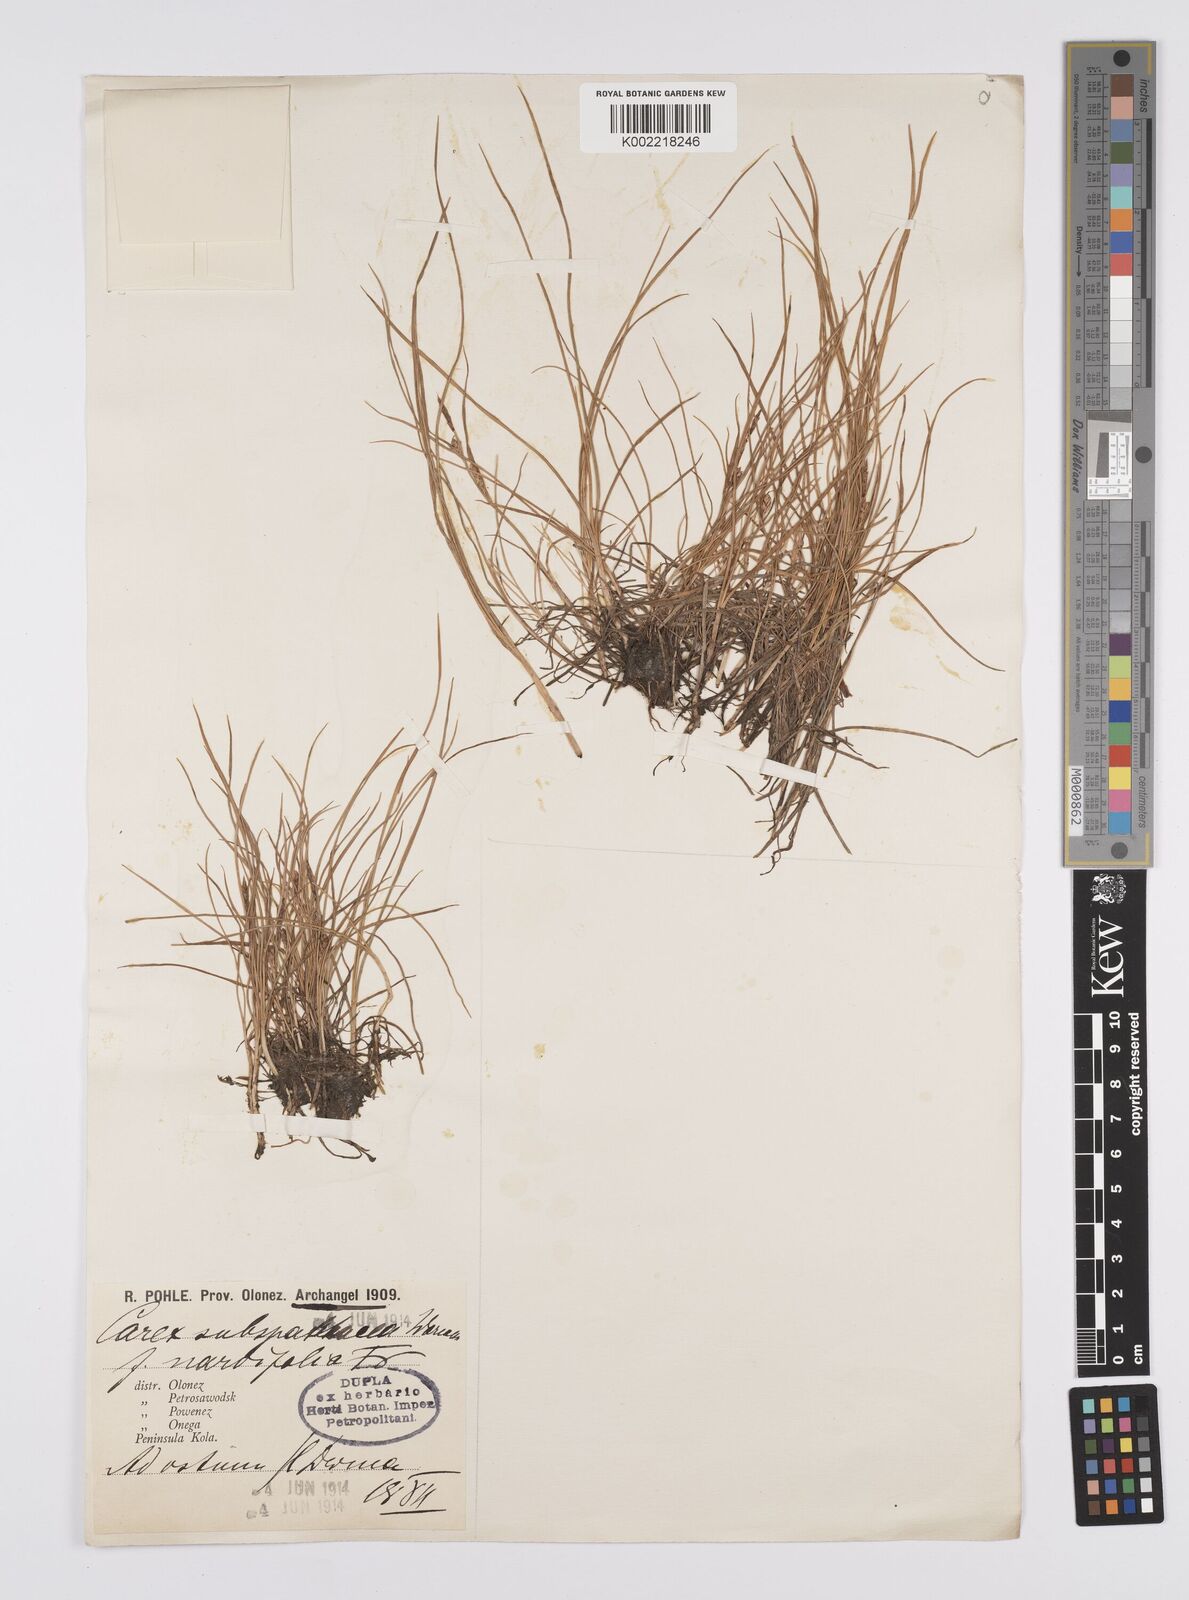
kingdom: Plantae
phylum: Tracheophyta
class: Liliopsida
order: Poales
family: Cyperaceae
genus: Carex
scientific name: Carex subspathacea
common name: Hoppner's sedge
